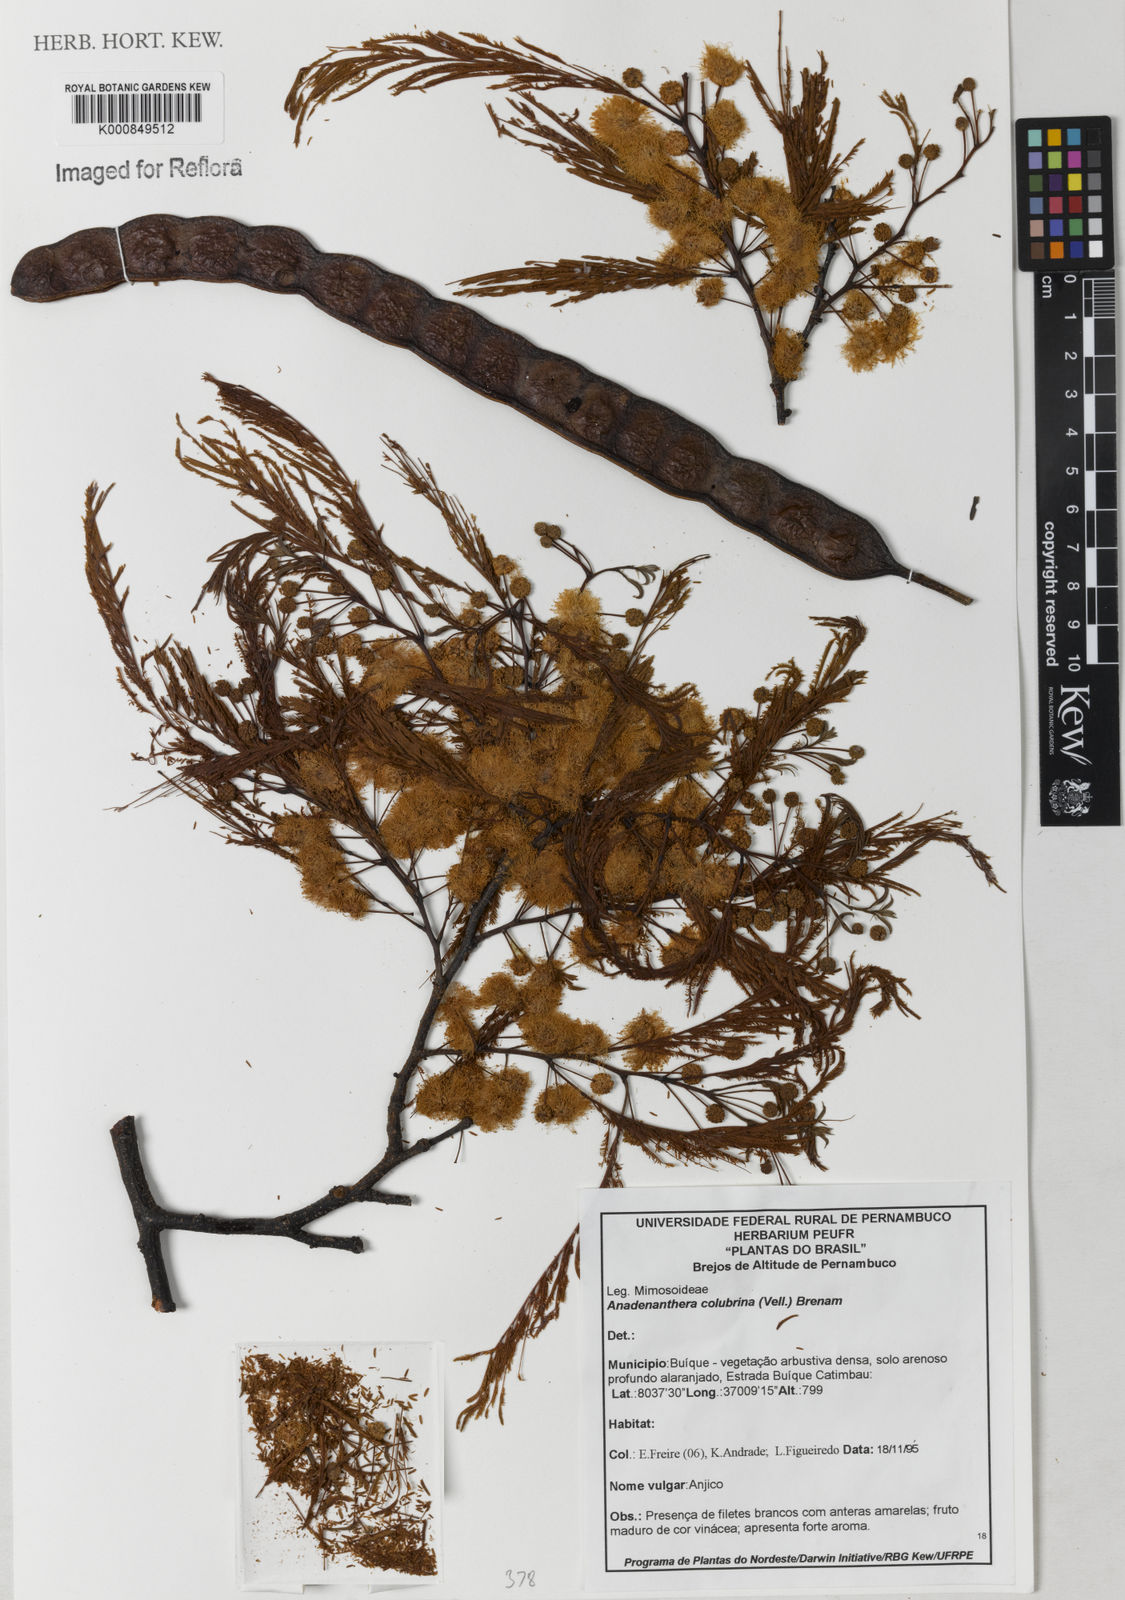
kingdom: Plantae
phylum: Tracheophyta
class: Magnoliopsida
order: Fabales
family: Fabaceae
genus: Anadenanthera
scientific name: Anadenanthera colubrina
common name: Curupay
